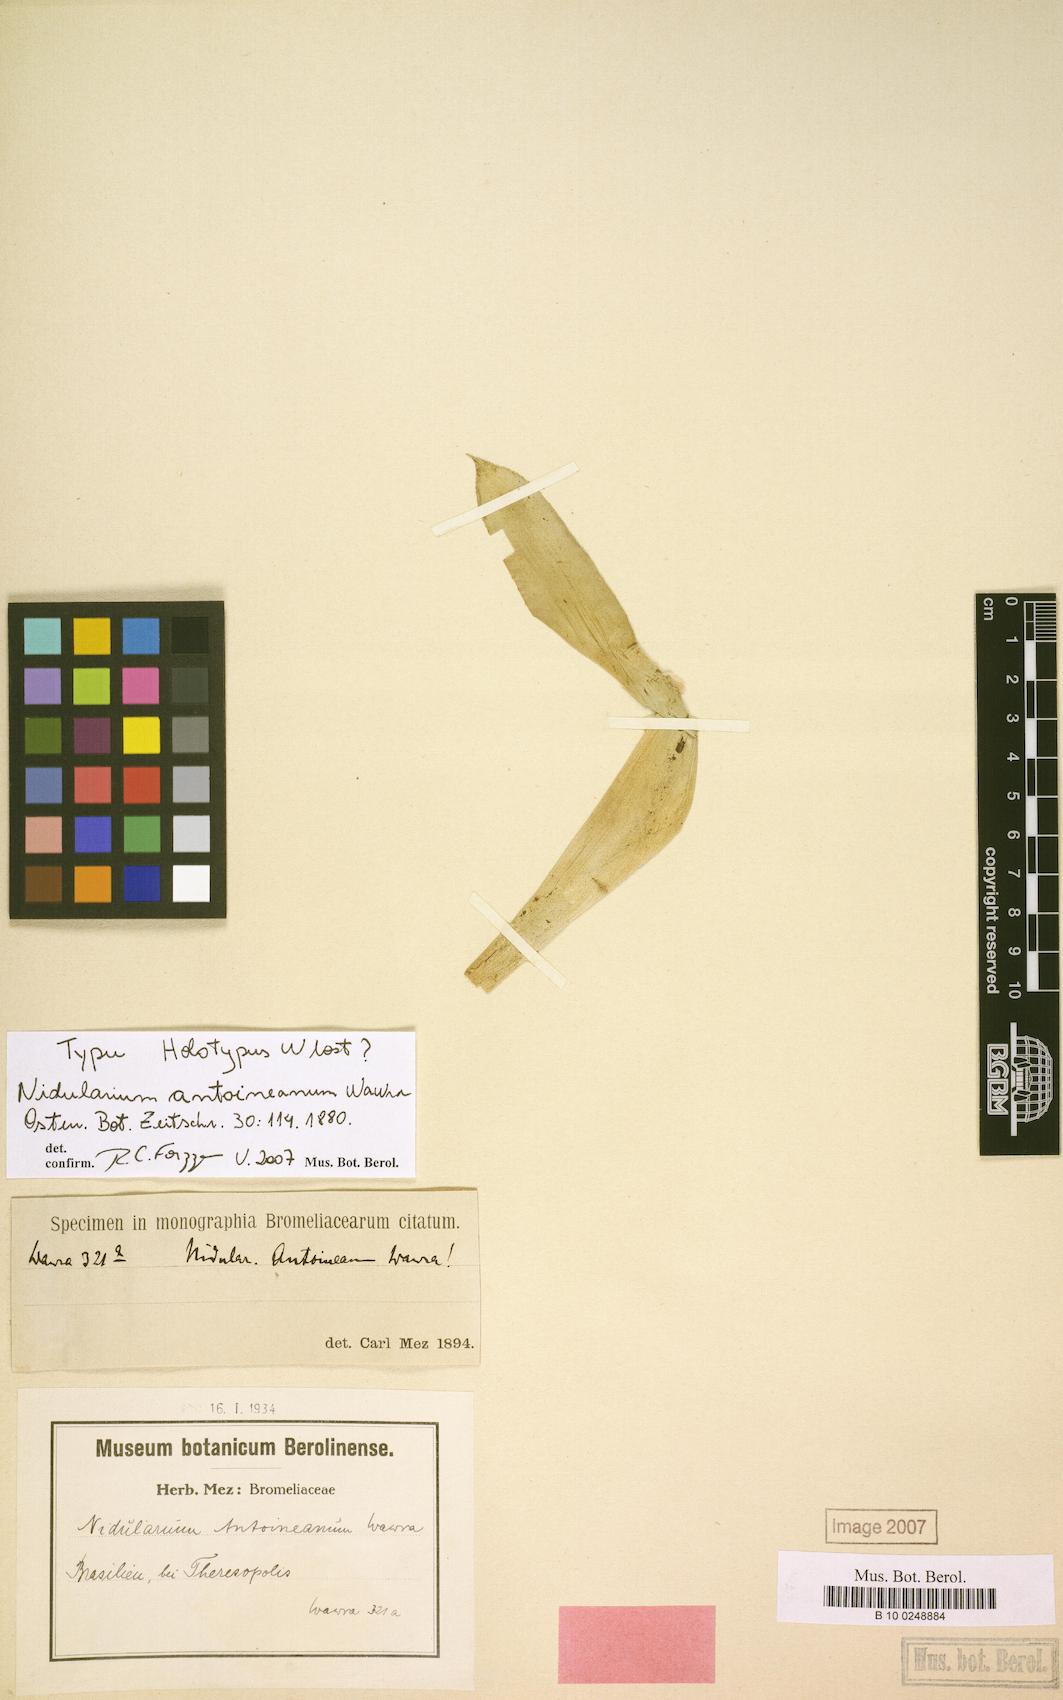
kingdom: Plantae
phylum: Tracheophyta
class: Liliopsida
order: Poales
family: Bromeliaceae
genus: Nidularium
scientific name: Nidularium antoineanum
